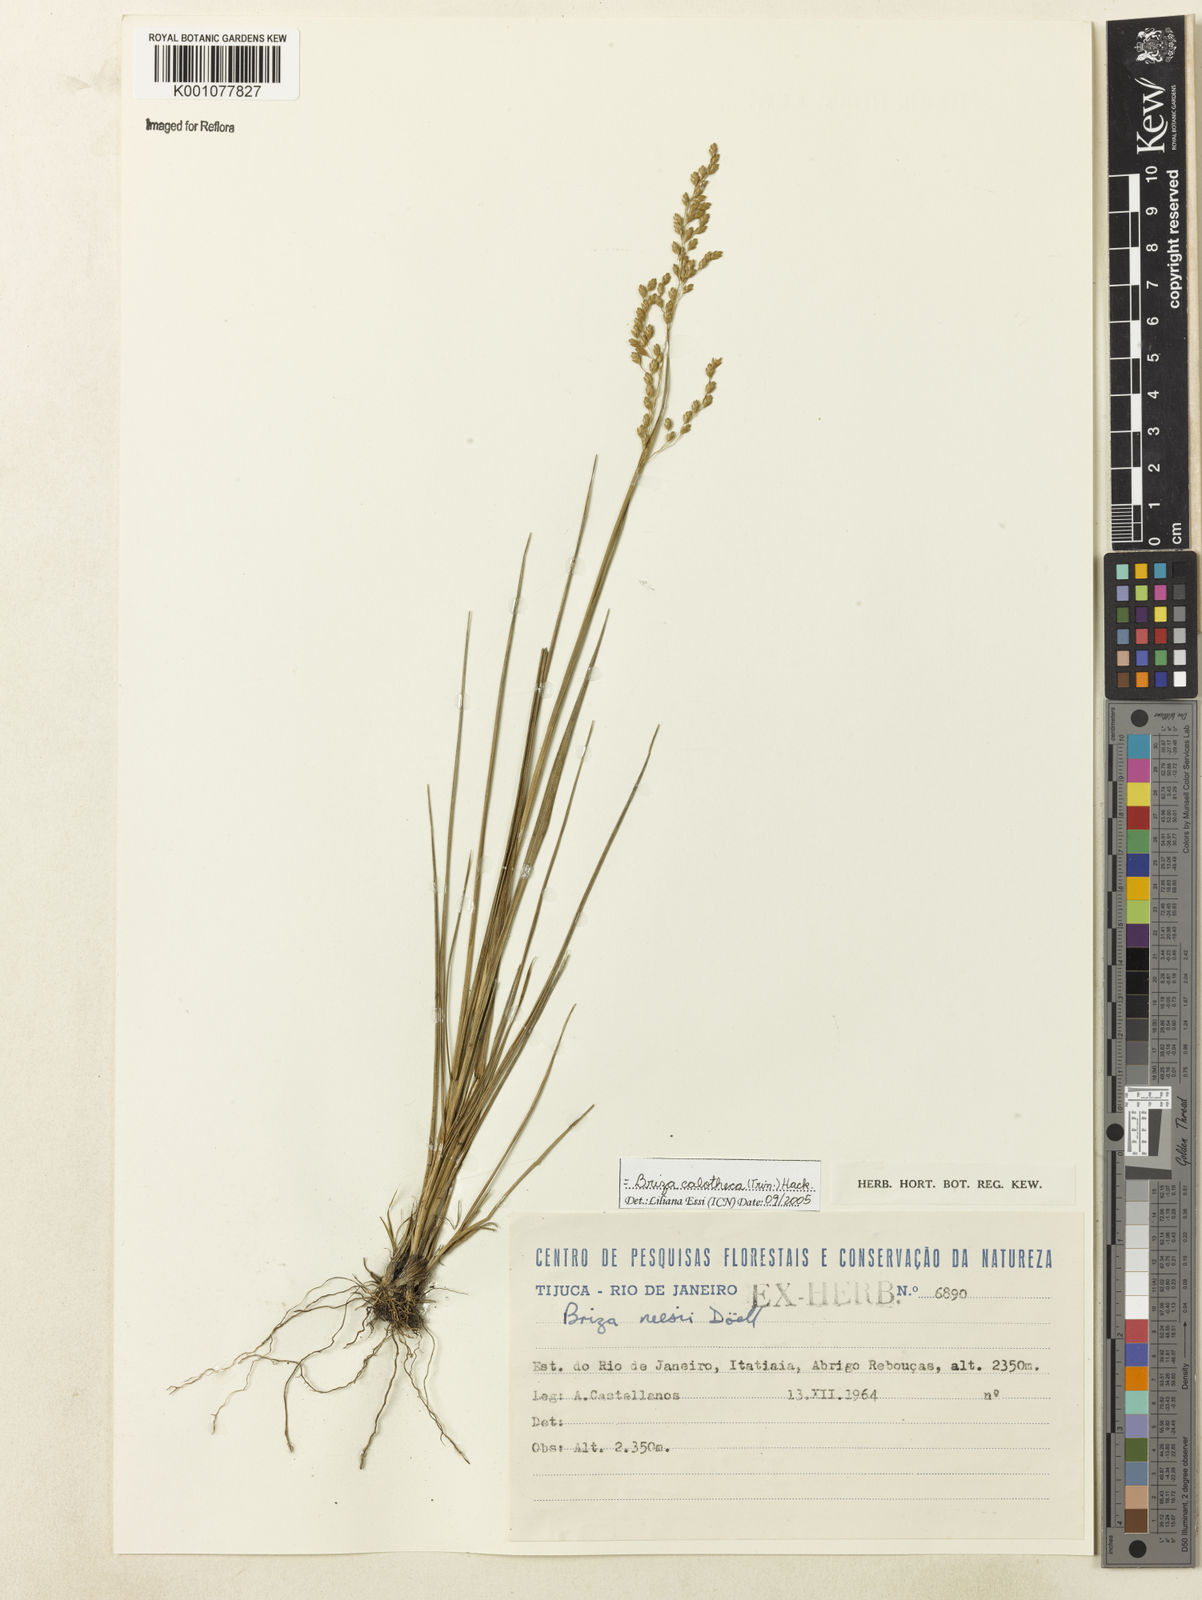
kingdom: Plantae
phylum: Tracheophyta
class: Liliopsida
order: Poales
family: Poaceae
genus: Poidium
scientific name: Poidium calotheca
